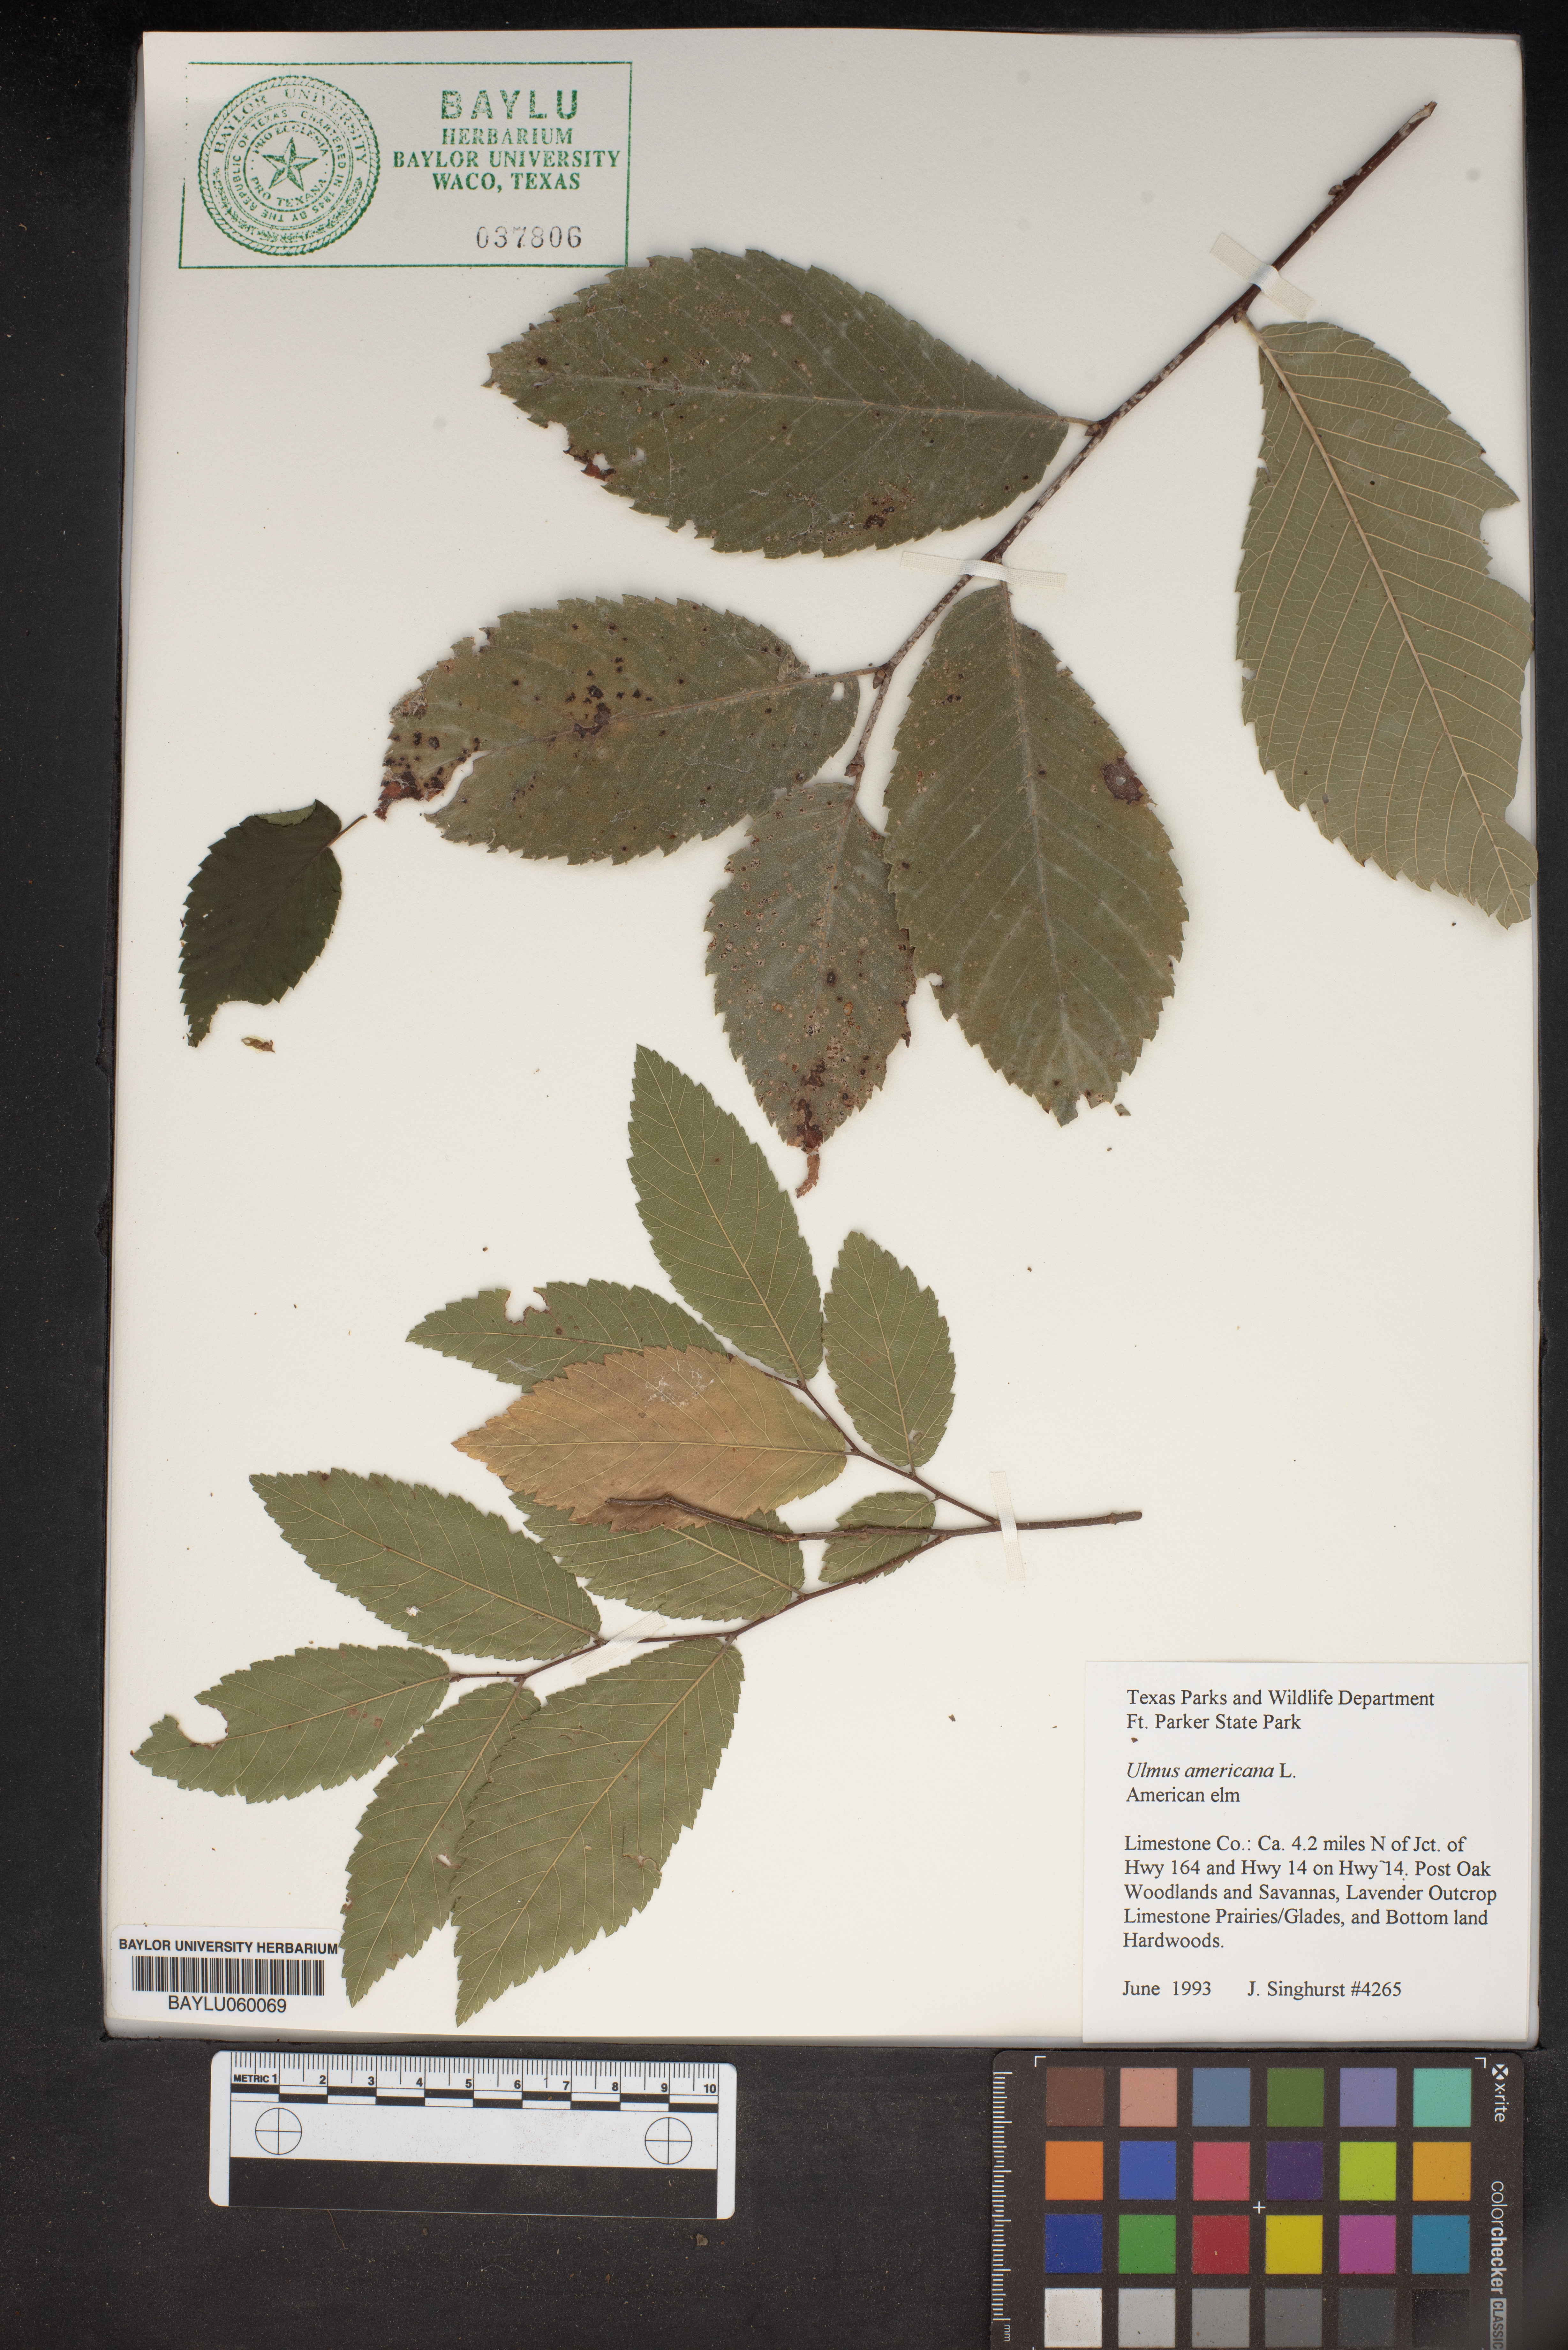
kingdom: Plantae
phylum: Tracheophyta
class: Magnoliopsida
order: Rosales
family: Ulmaceae
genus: Ulmus
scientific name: Ulmus americana
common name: American elm
